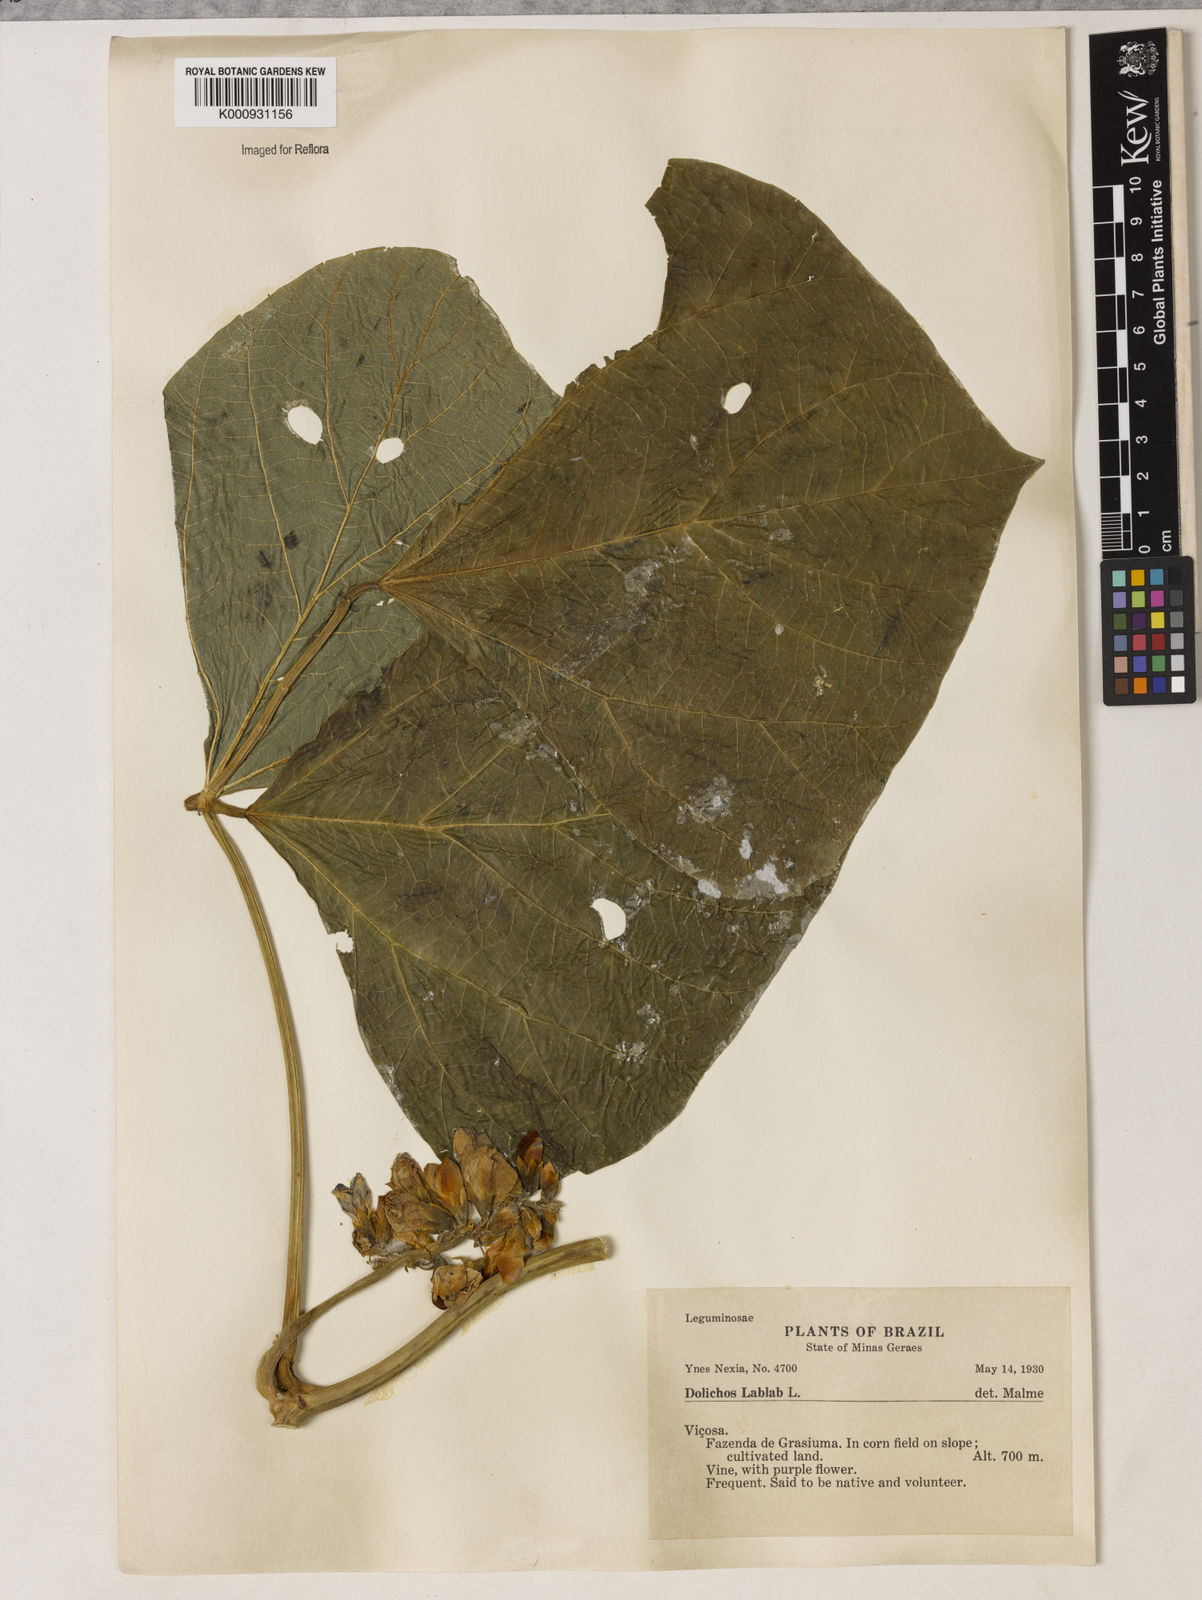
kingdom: Plantae
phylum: Tracheophyta
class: Magnoliopsida
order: Fabales
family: Fabaceae
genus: Lablab
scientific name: Lablab purpureus
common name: Lablab-bean
